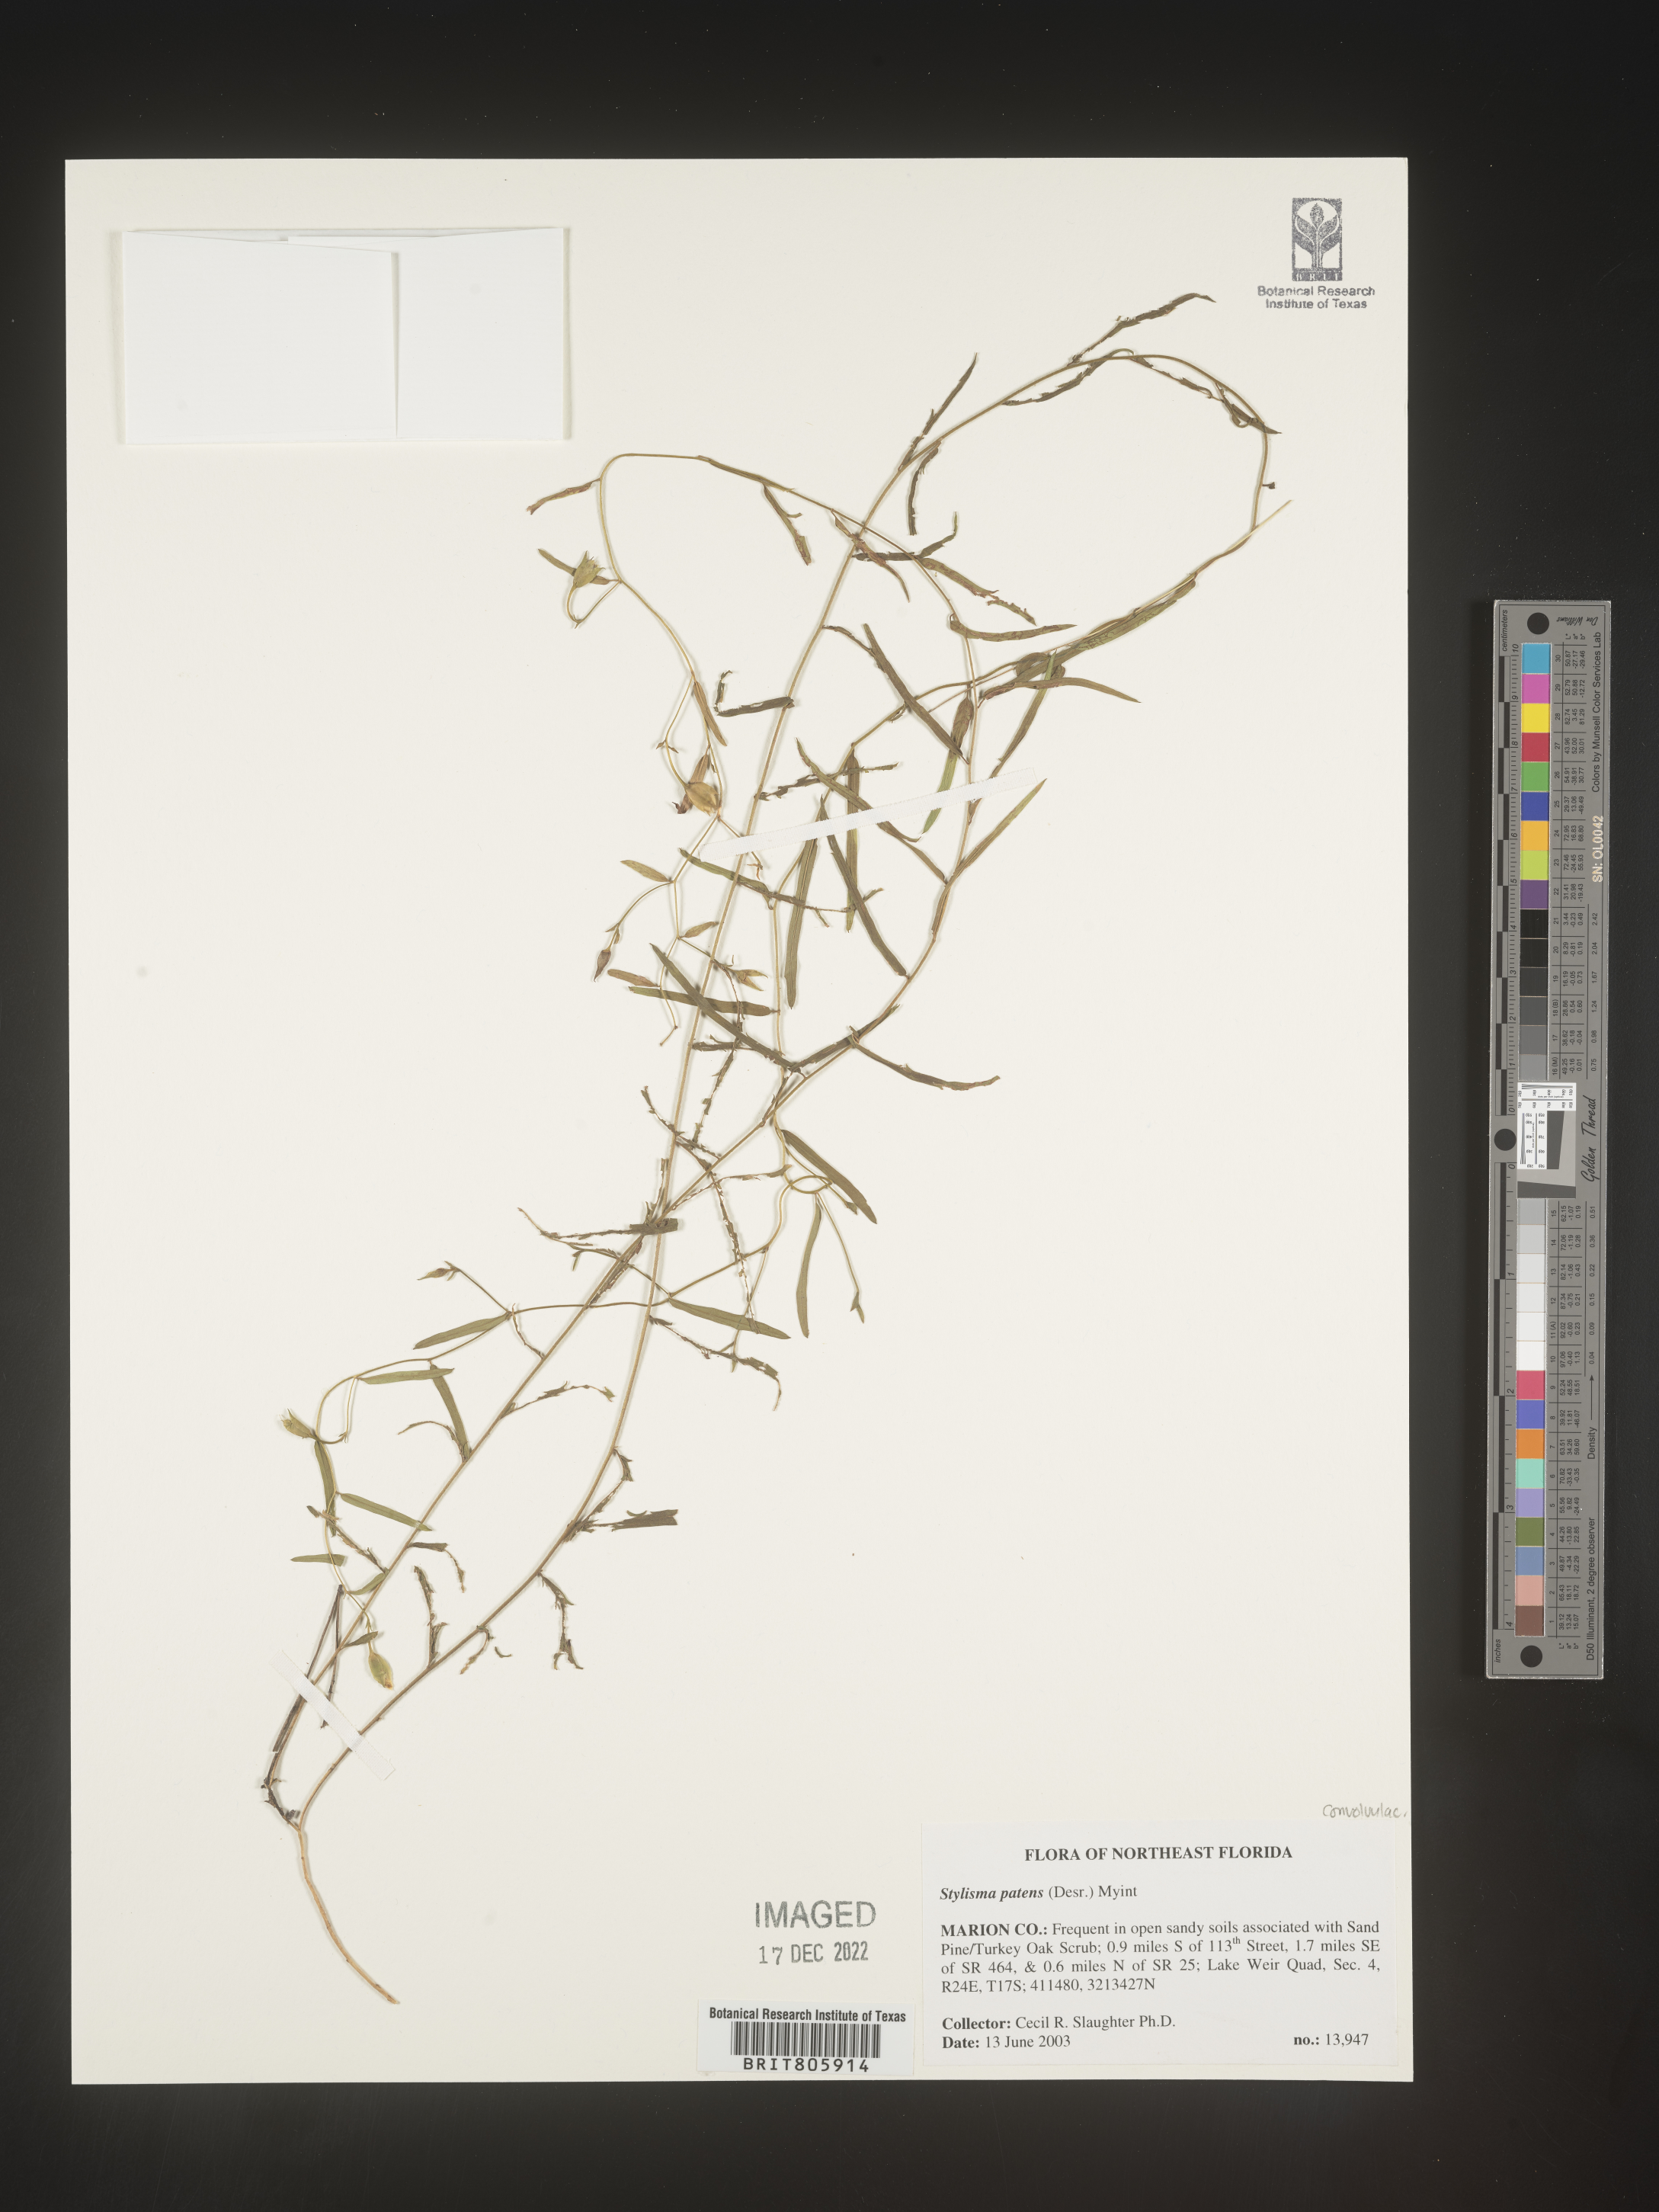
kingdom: Plantae
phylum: Tracheophyta
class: Magnoliopsida
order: Solanales
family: Convolvulaceae
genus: Stylisma
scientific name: Stylisma
